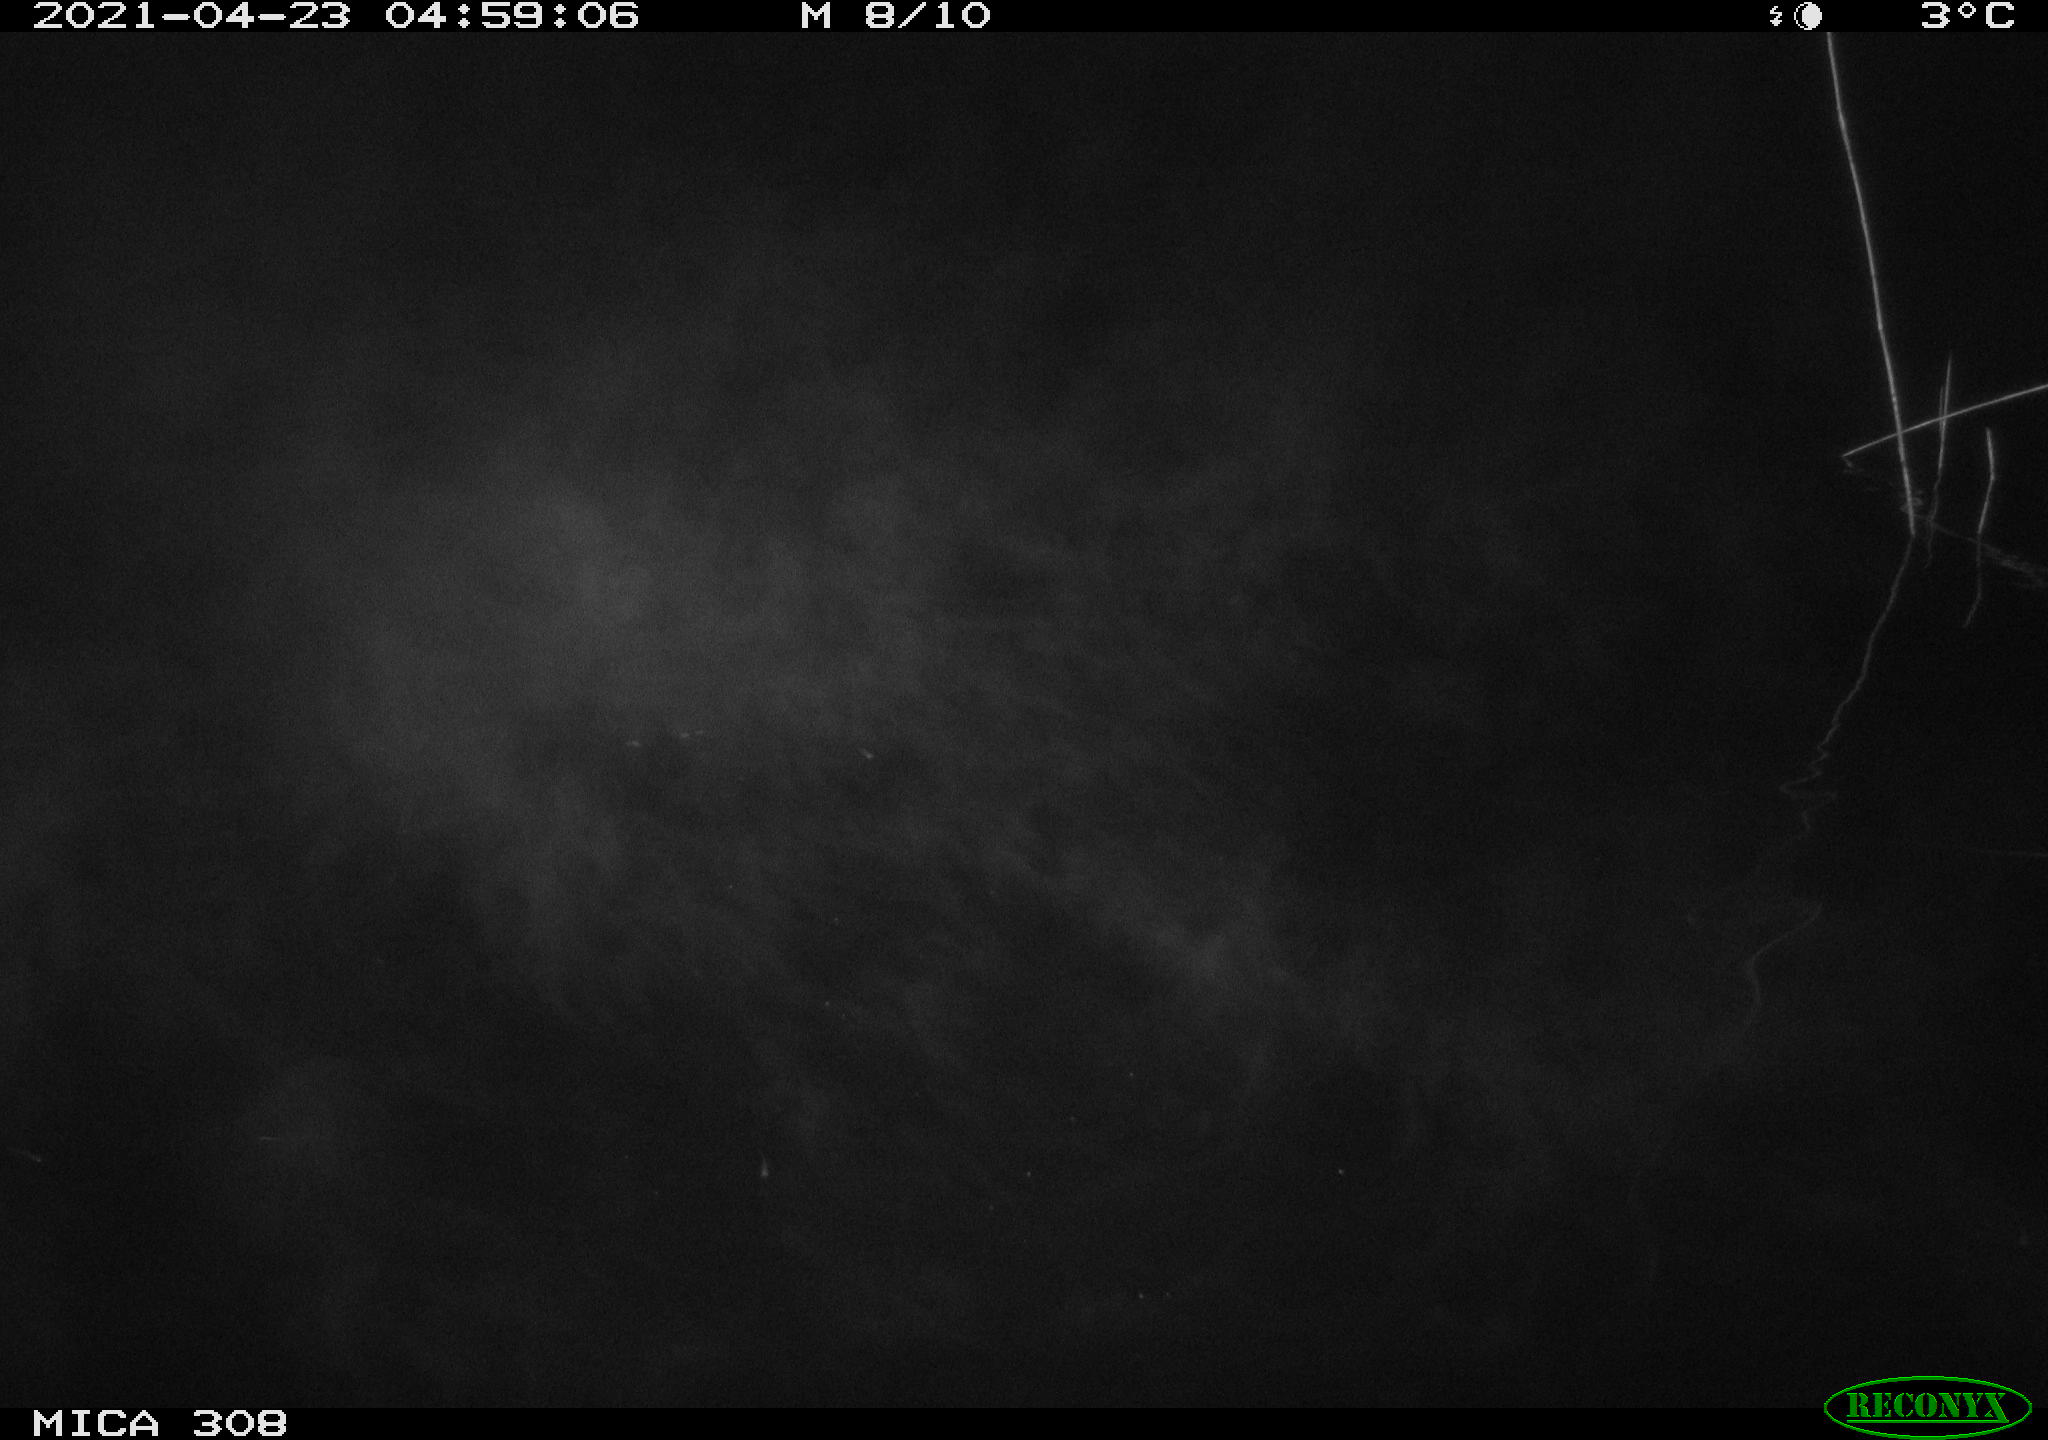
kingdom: Animalia
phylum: Chordata
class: Aves
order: Anseriformes
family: Anatidae
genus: Anas
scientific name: Anas platyrhynchos
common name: Mallard
